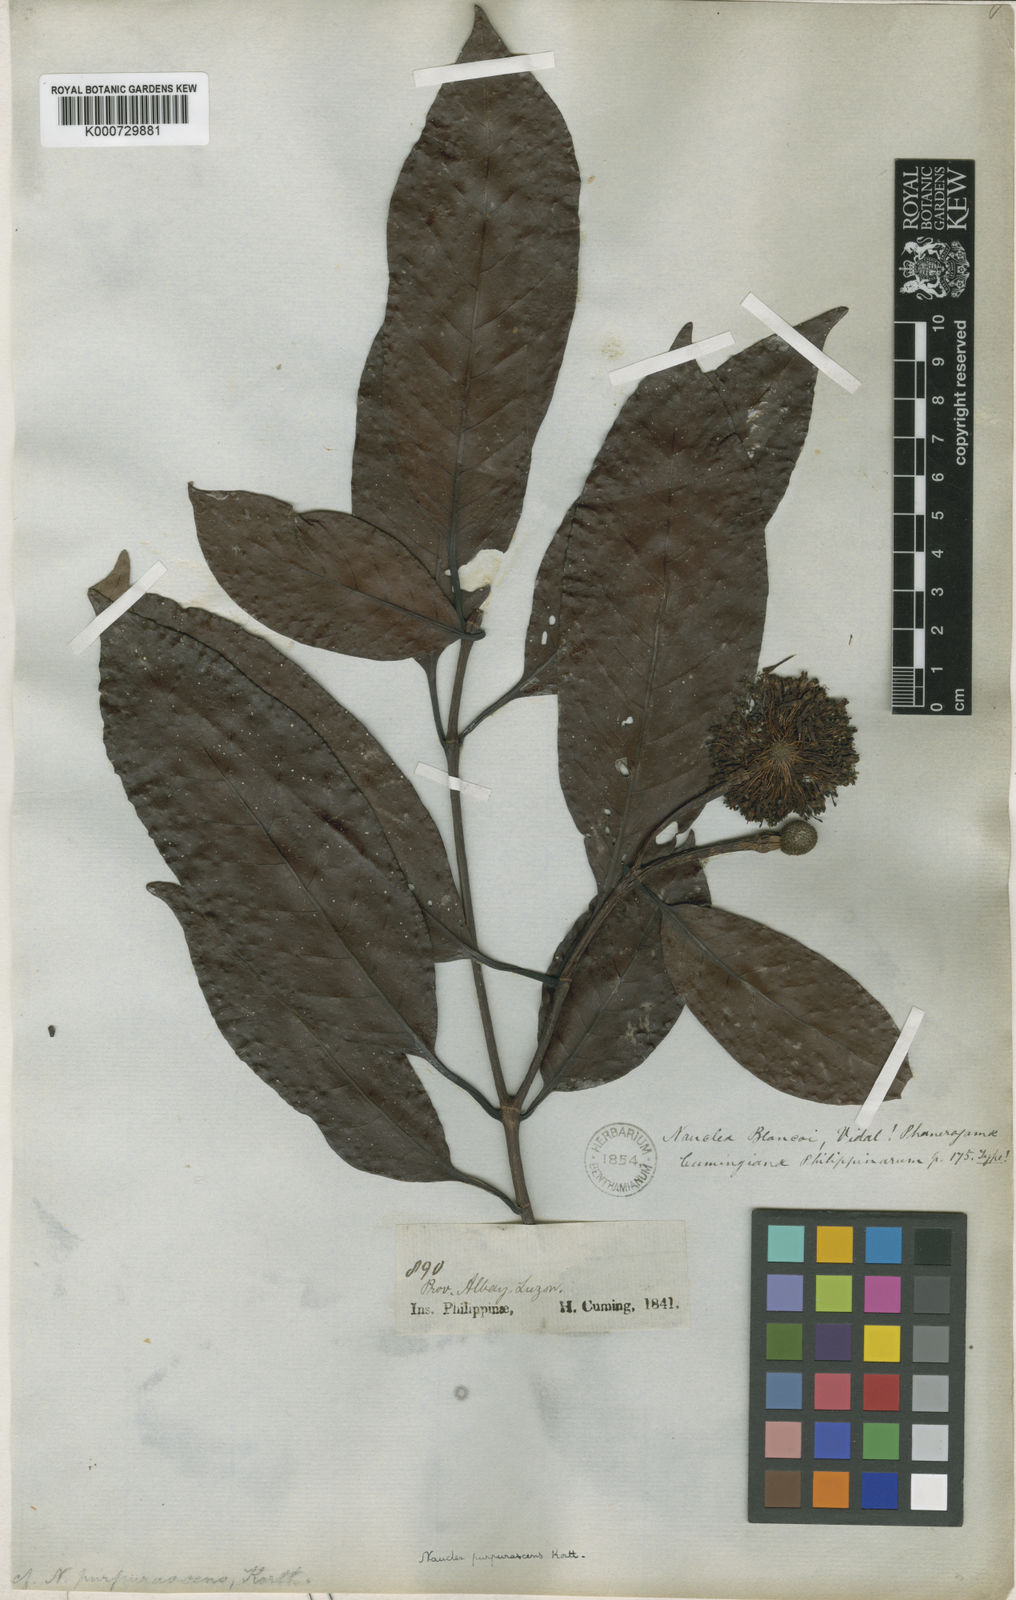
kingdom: Plantae
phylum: Tracheophyta
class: Magnoliopsida
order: Gentianales
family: Rubiaceae
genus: Neonauclea
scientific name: Neonauclea calycina
